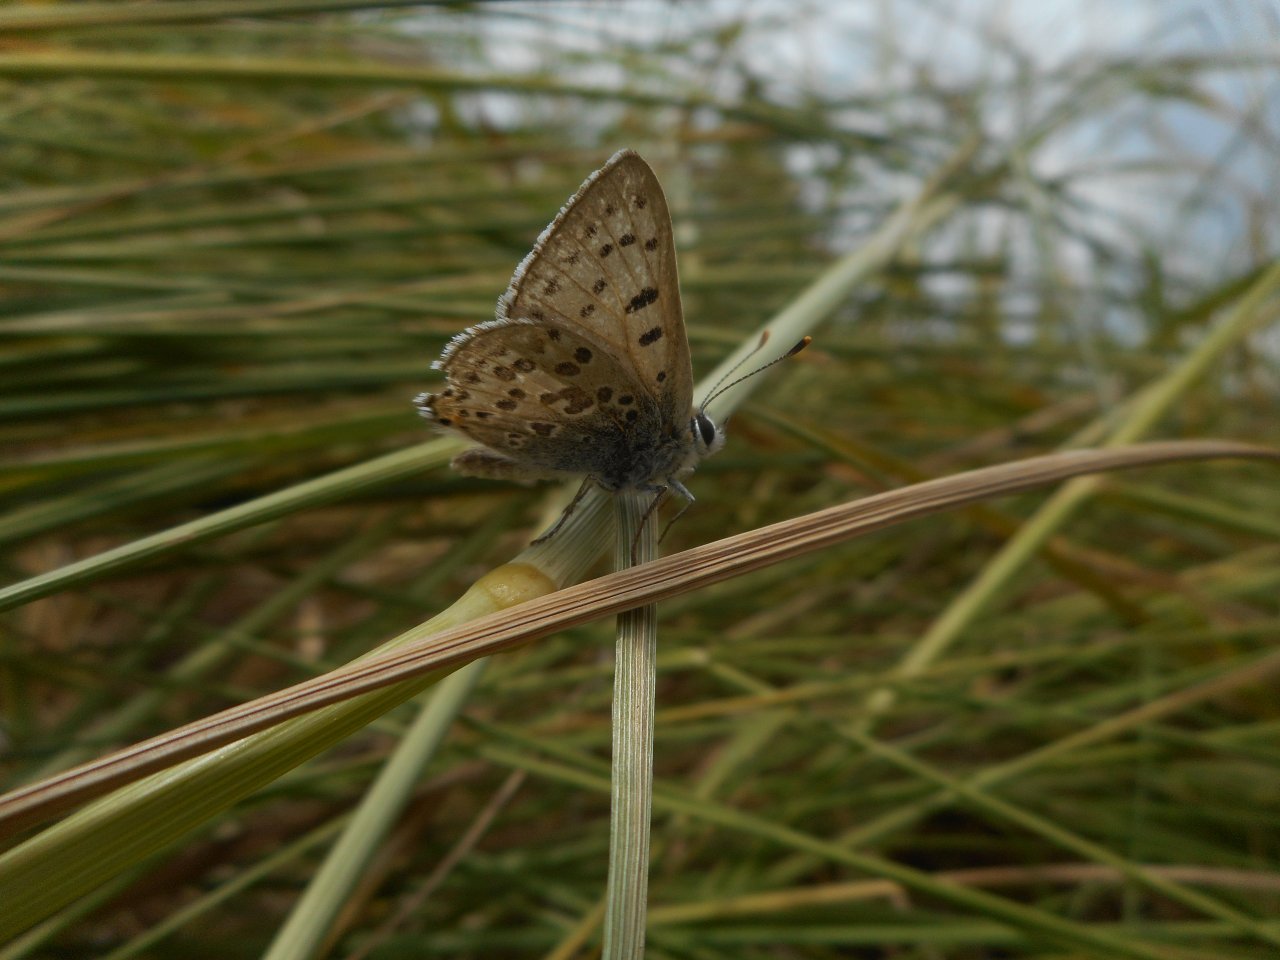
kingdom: Animalia
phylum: Arthropoda
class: Insecta
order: Lepidoptera
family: Lycaenidae
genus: Lycaena
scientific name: Lycaena editha
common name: Edith's Copper
